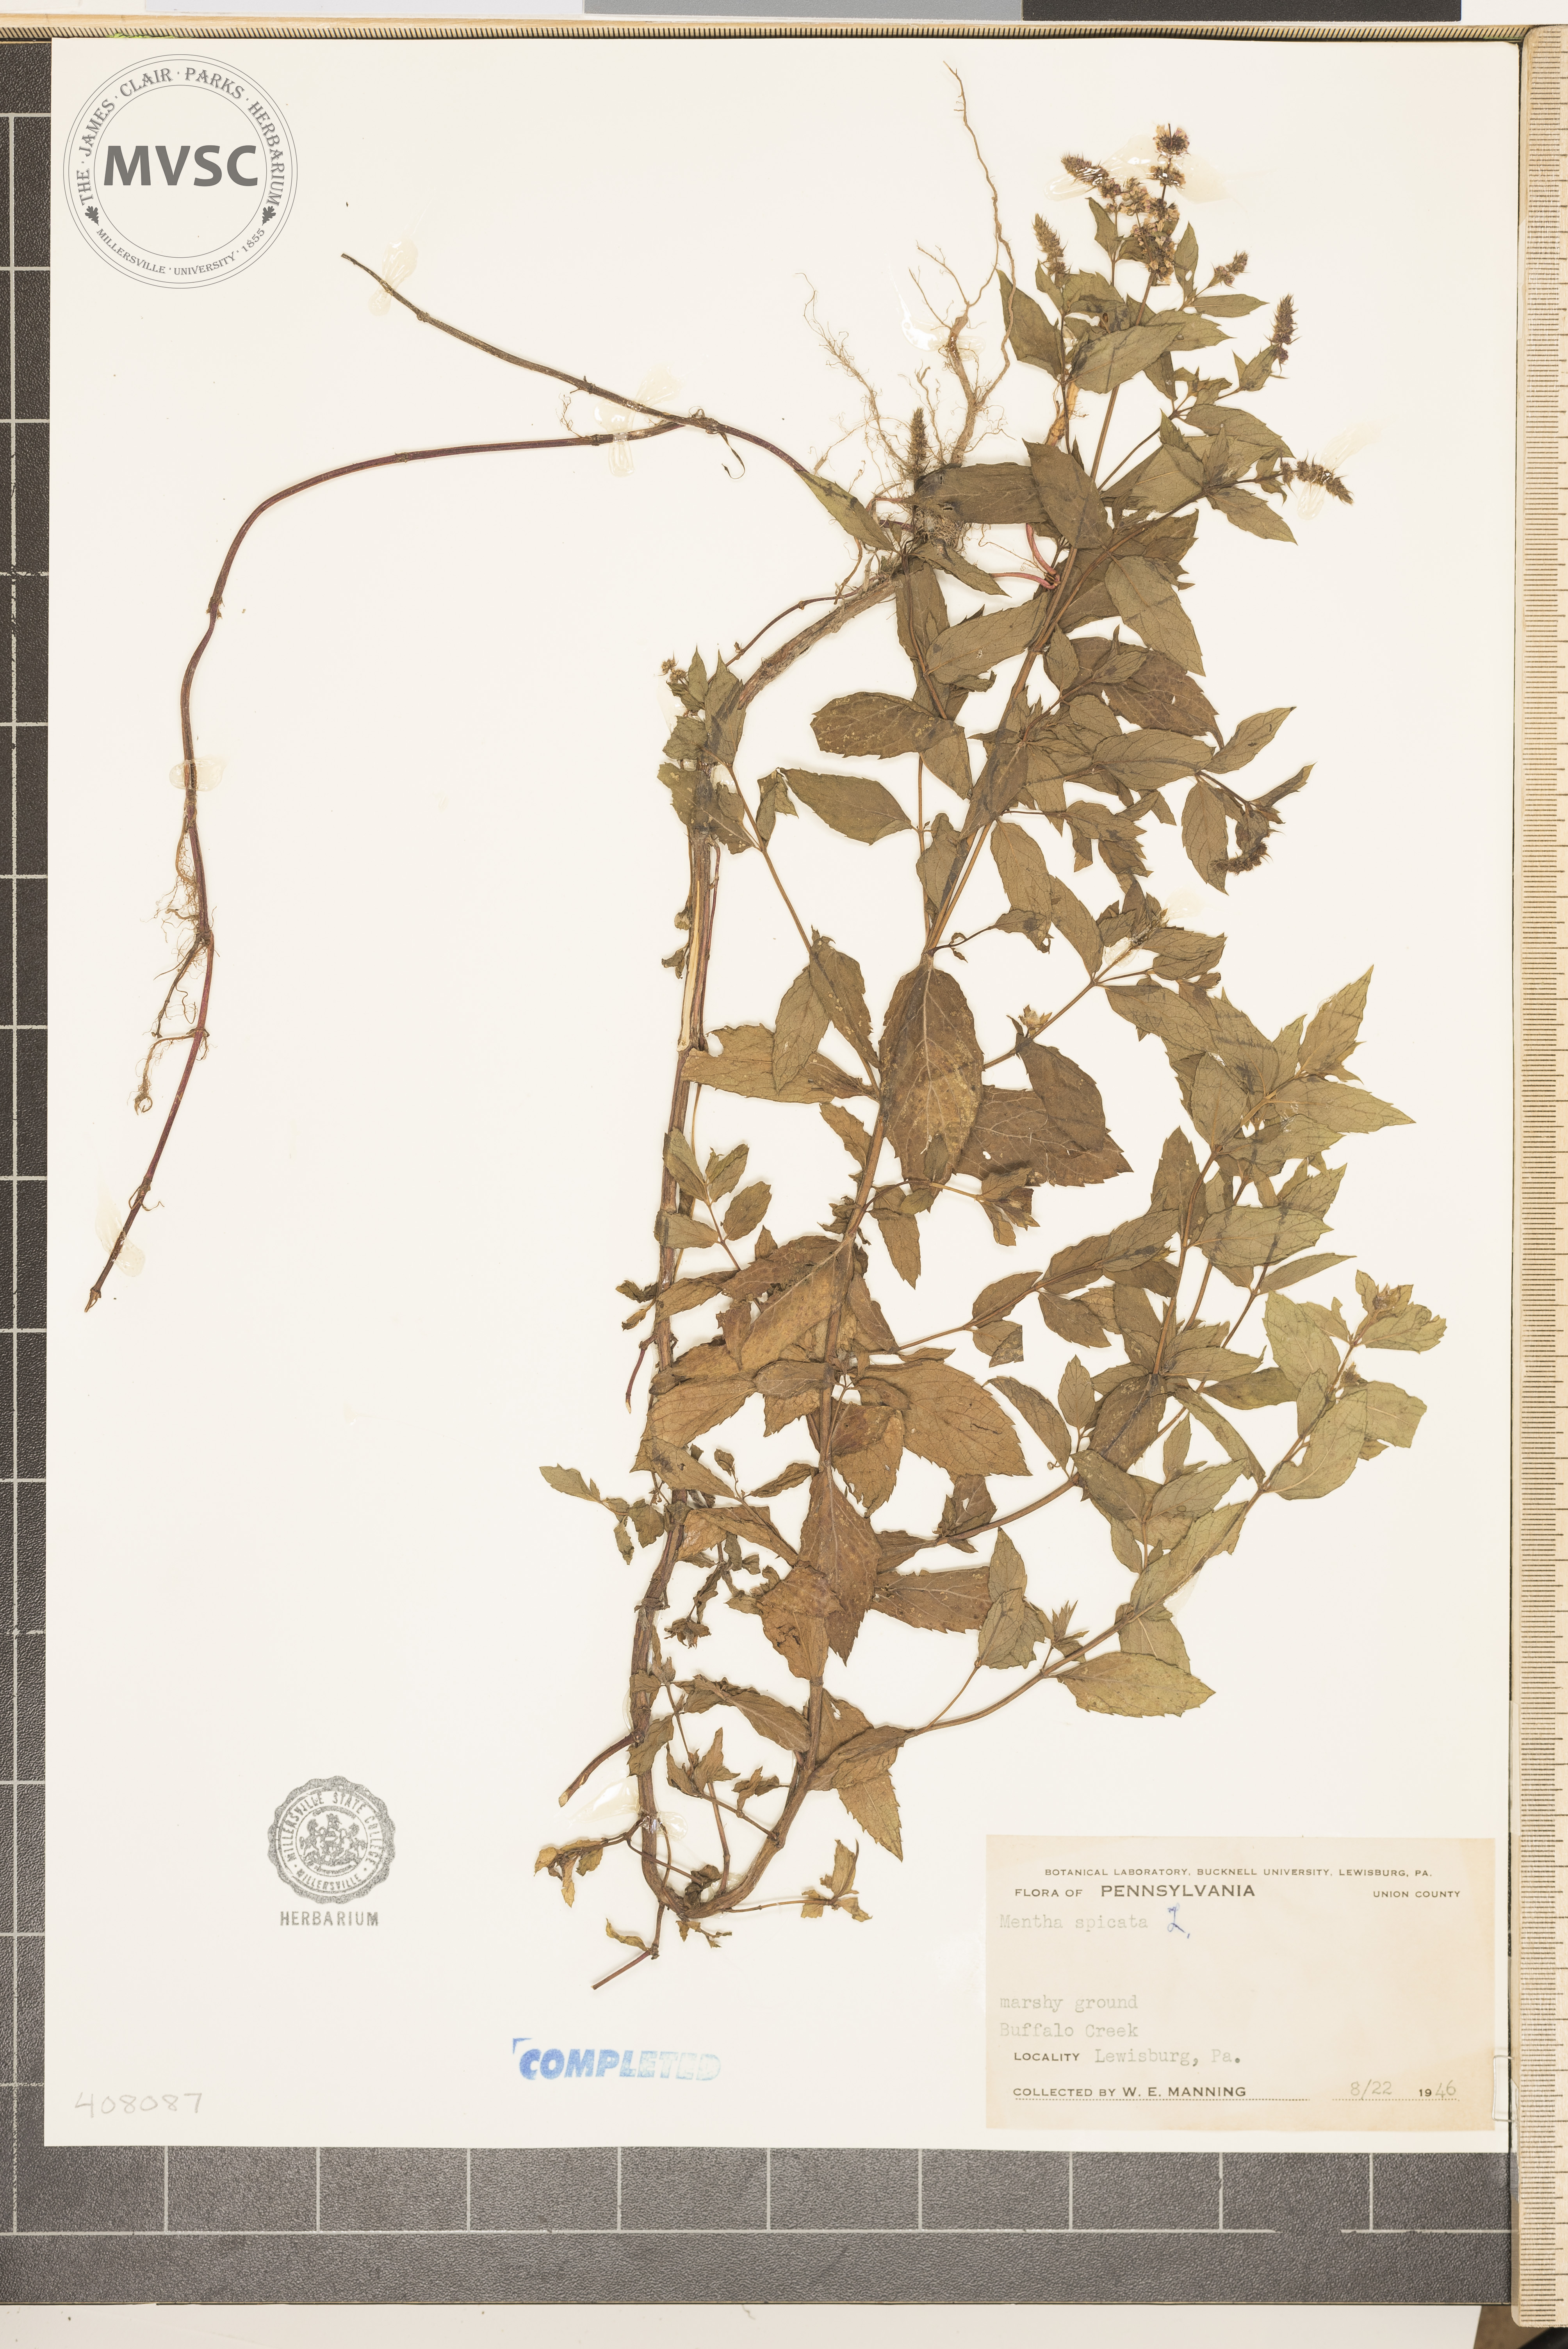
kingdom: Plantae
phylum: Tracheophyta
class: Magnoliopsida
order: Lamiales
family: Lamiaceae
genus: Mentha
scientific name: Mentha spicata
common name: Spearmint
